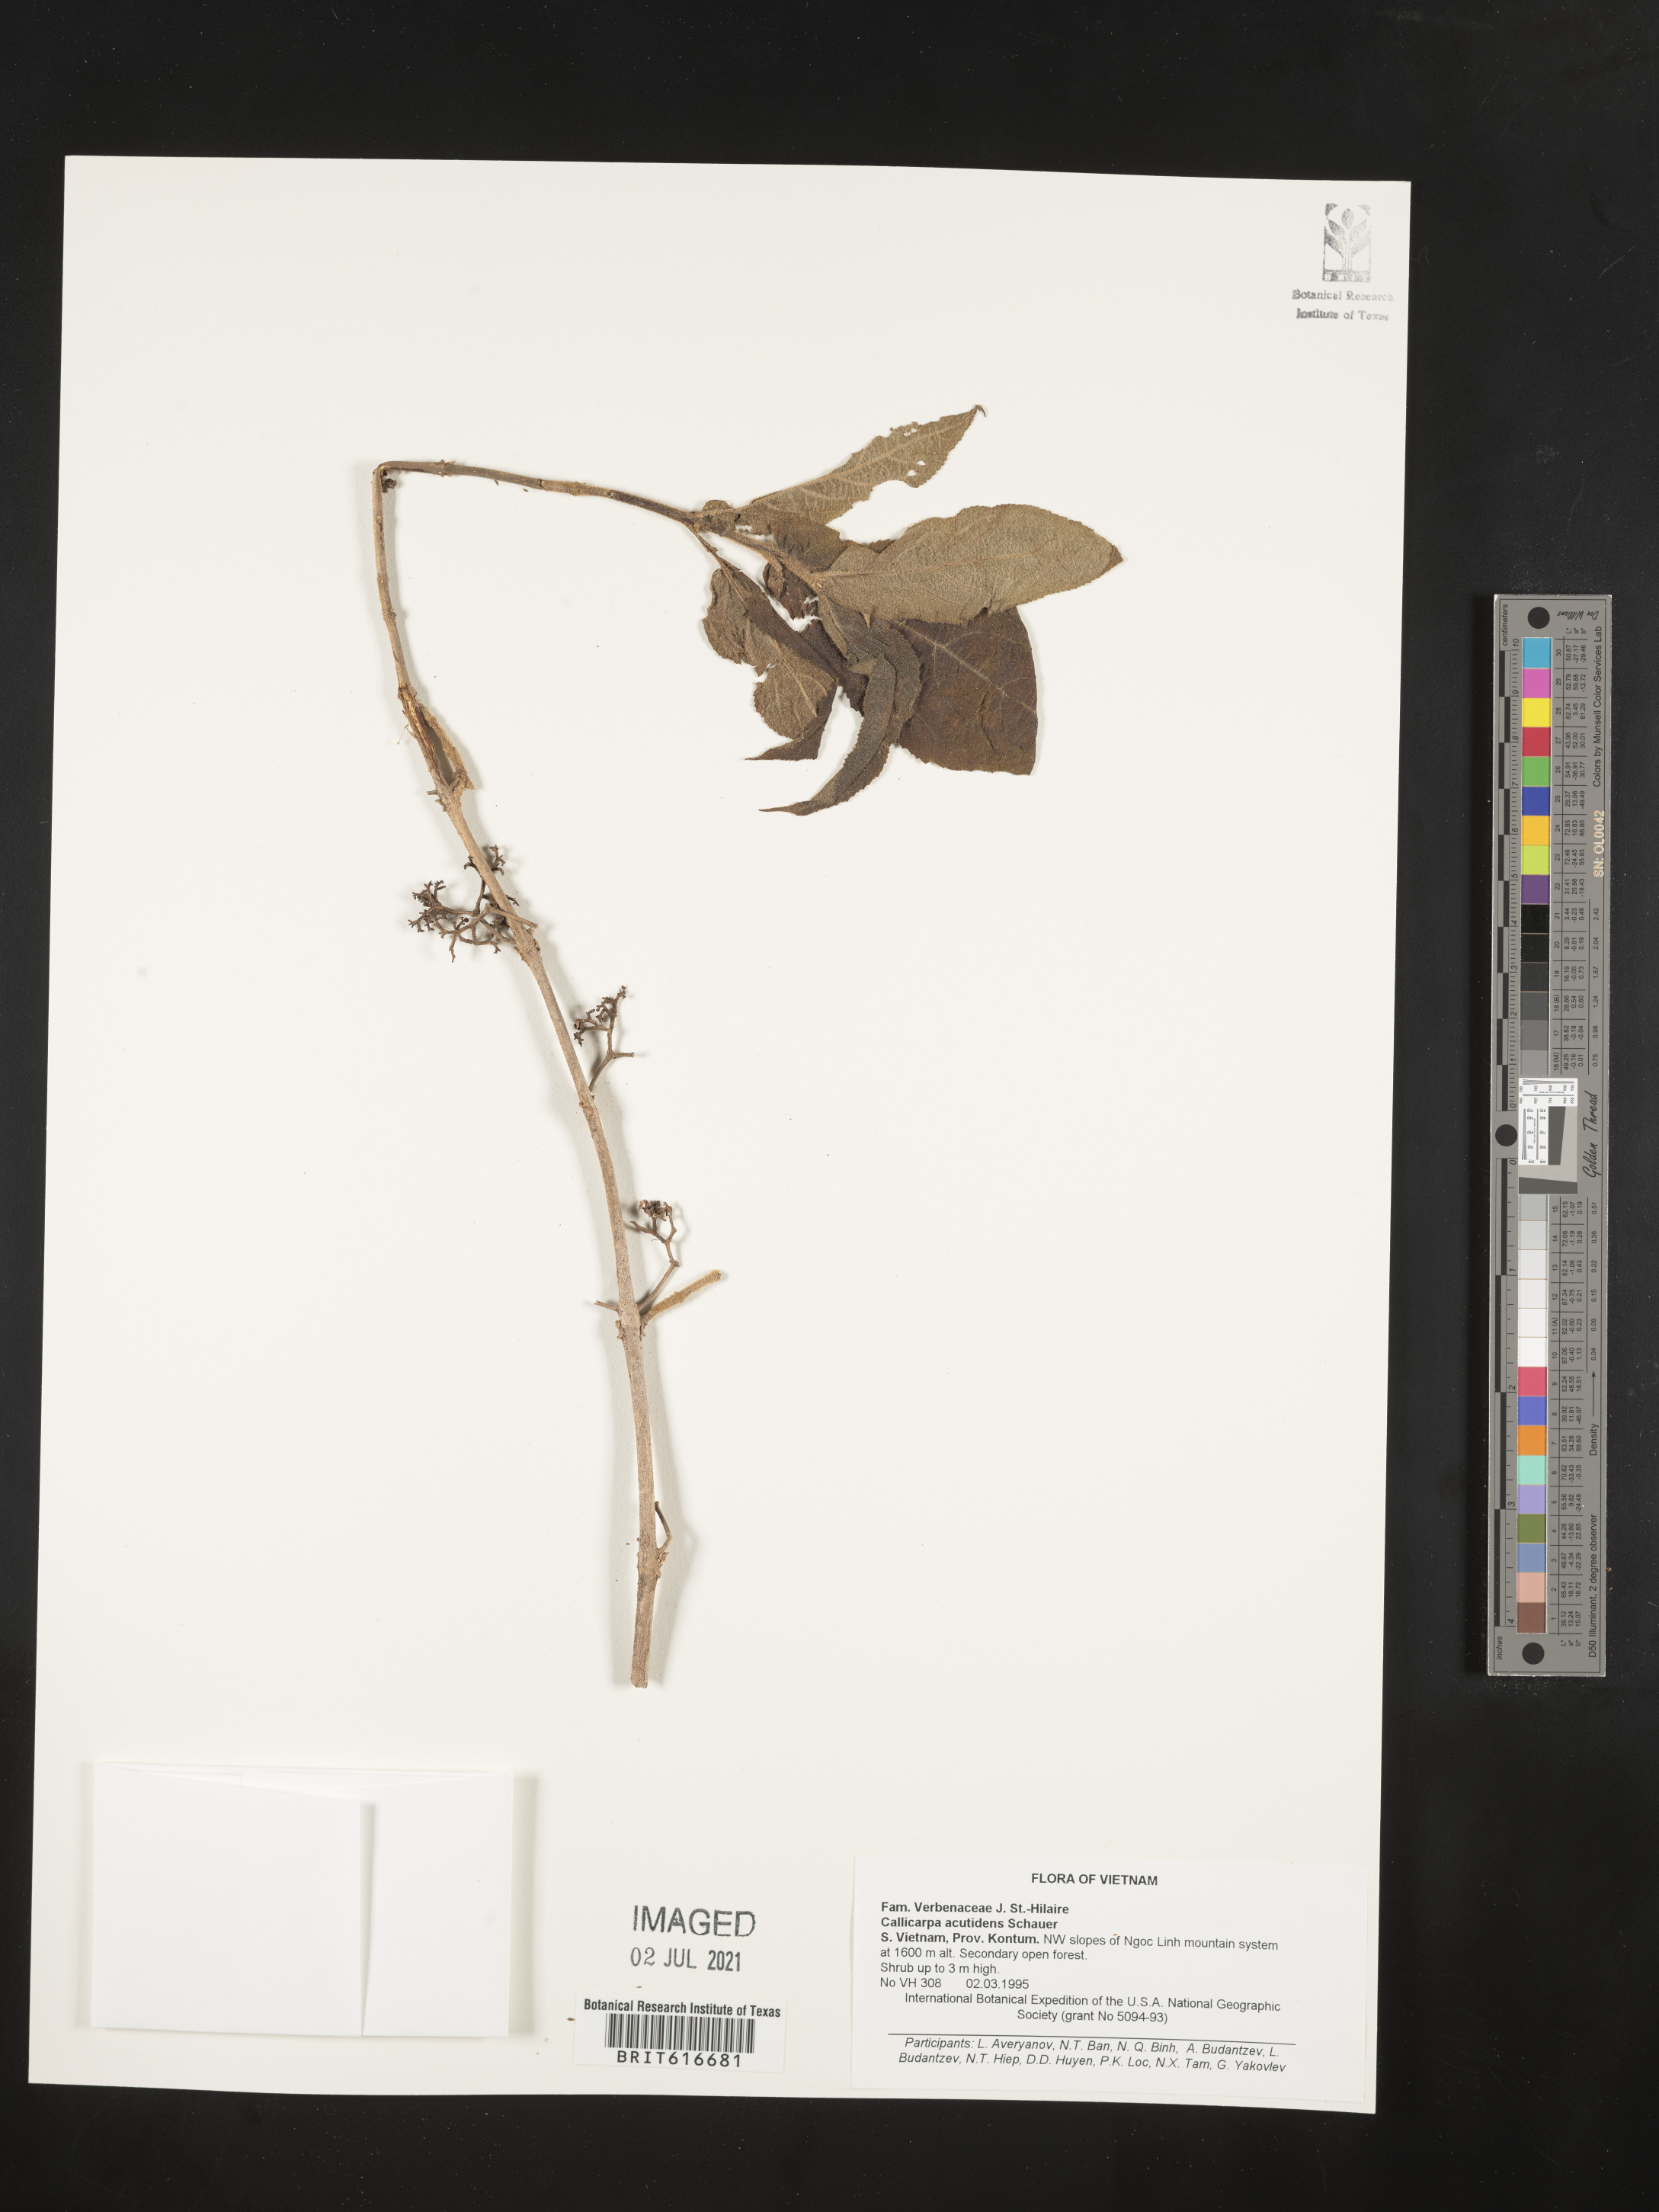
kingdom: Plantae
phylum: Tracheophyta
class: Magnoliopsida
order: Lamiales
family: Lamiaceae
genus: Callicarpa
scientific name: Callicarpa acutidens
